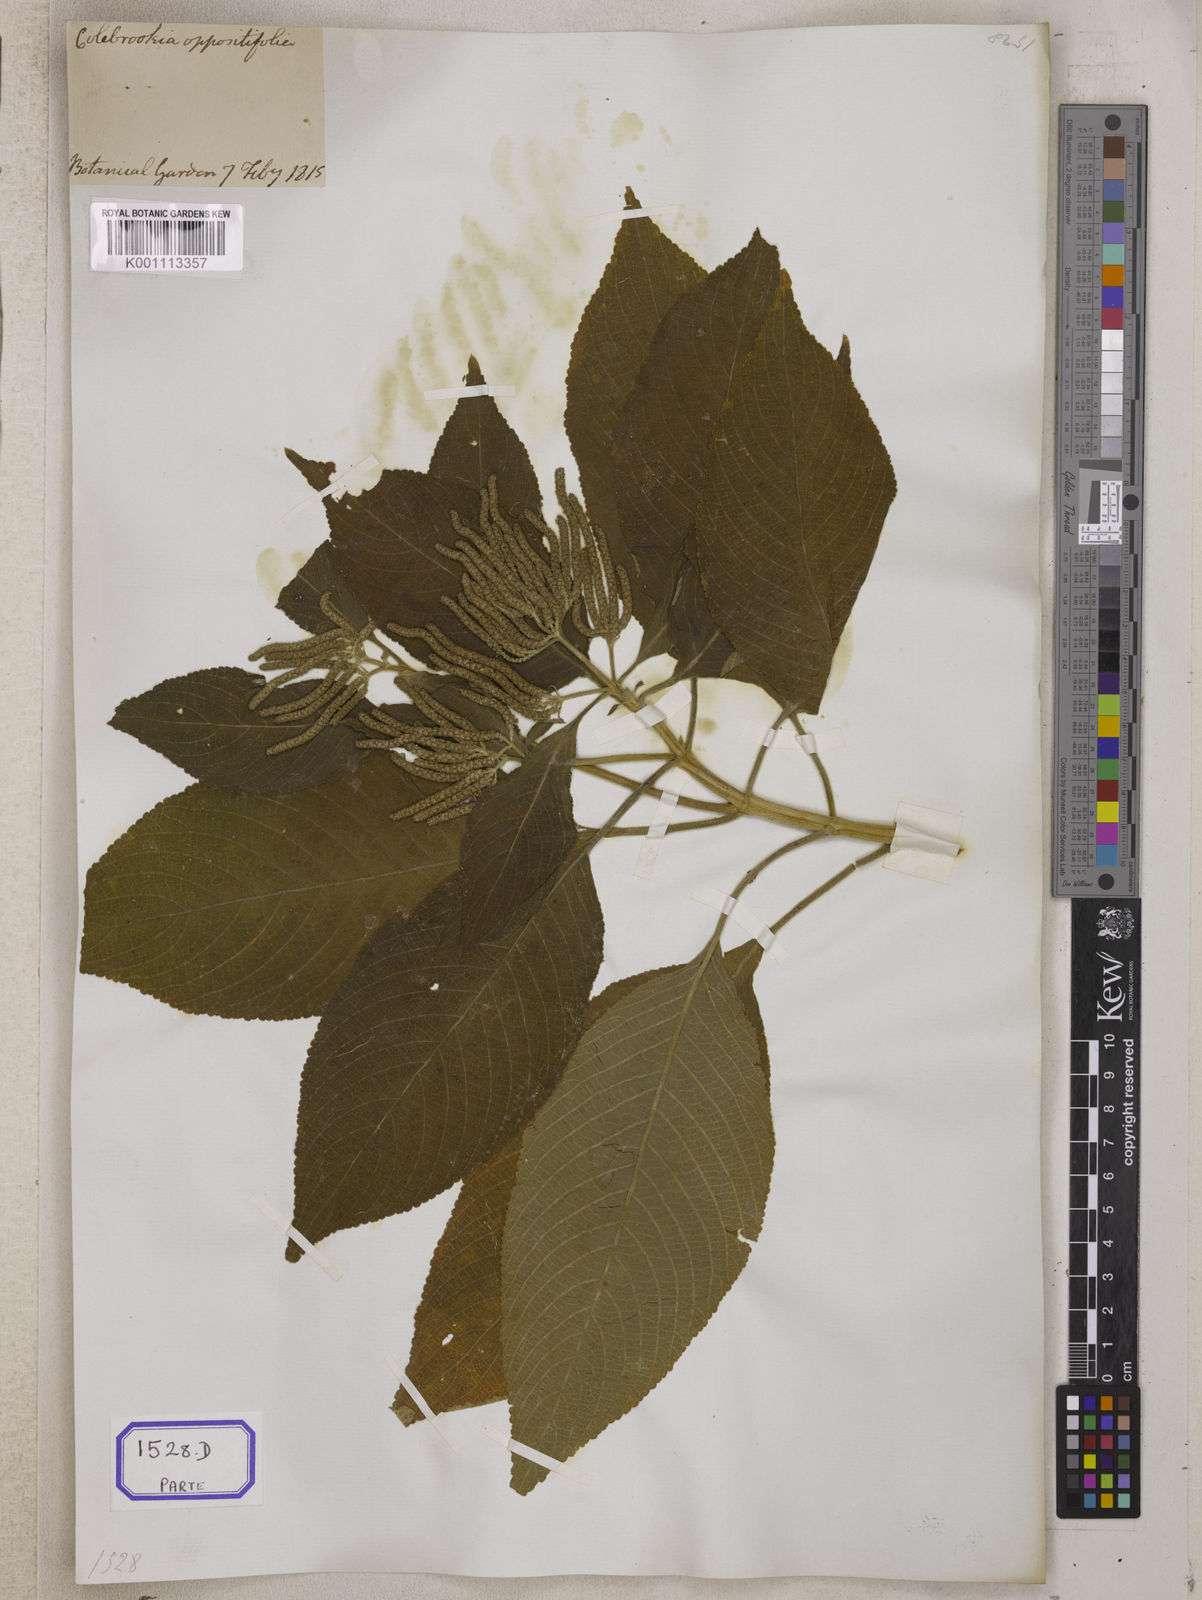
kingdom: Plantae
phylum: Tracheophyta
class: Magnoliopsida
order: Lamiales
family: Lamiaceae
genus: Colebrookea
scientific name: Colebrookea
